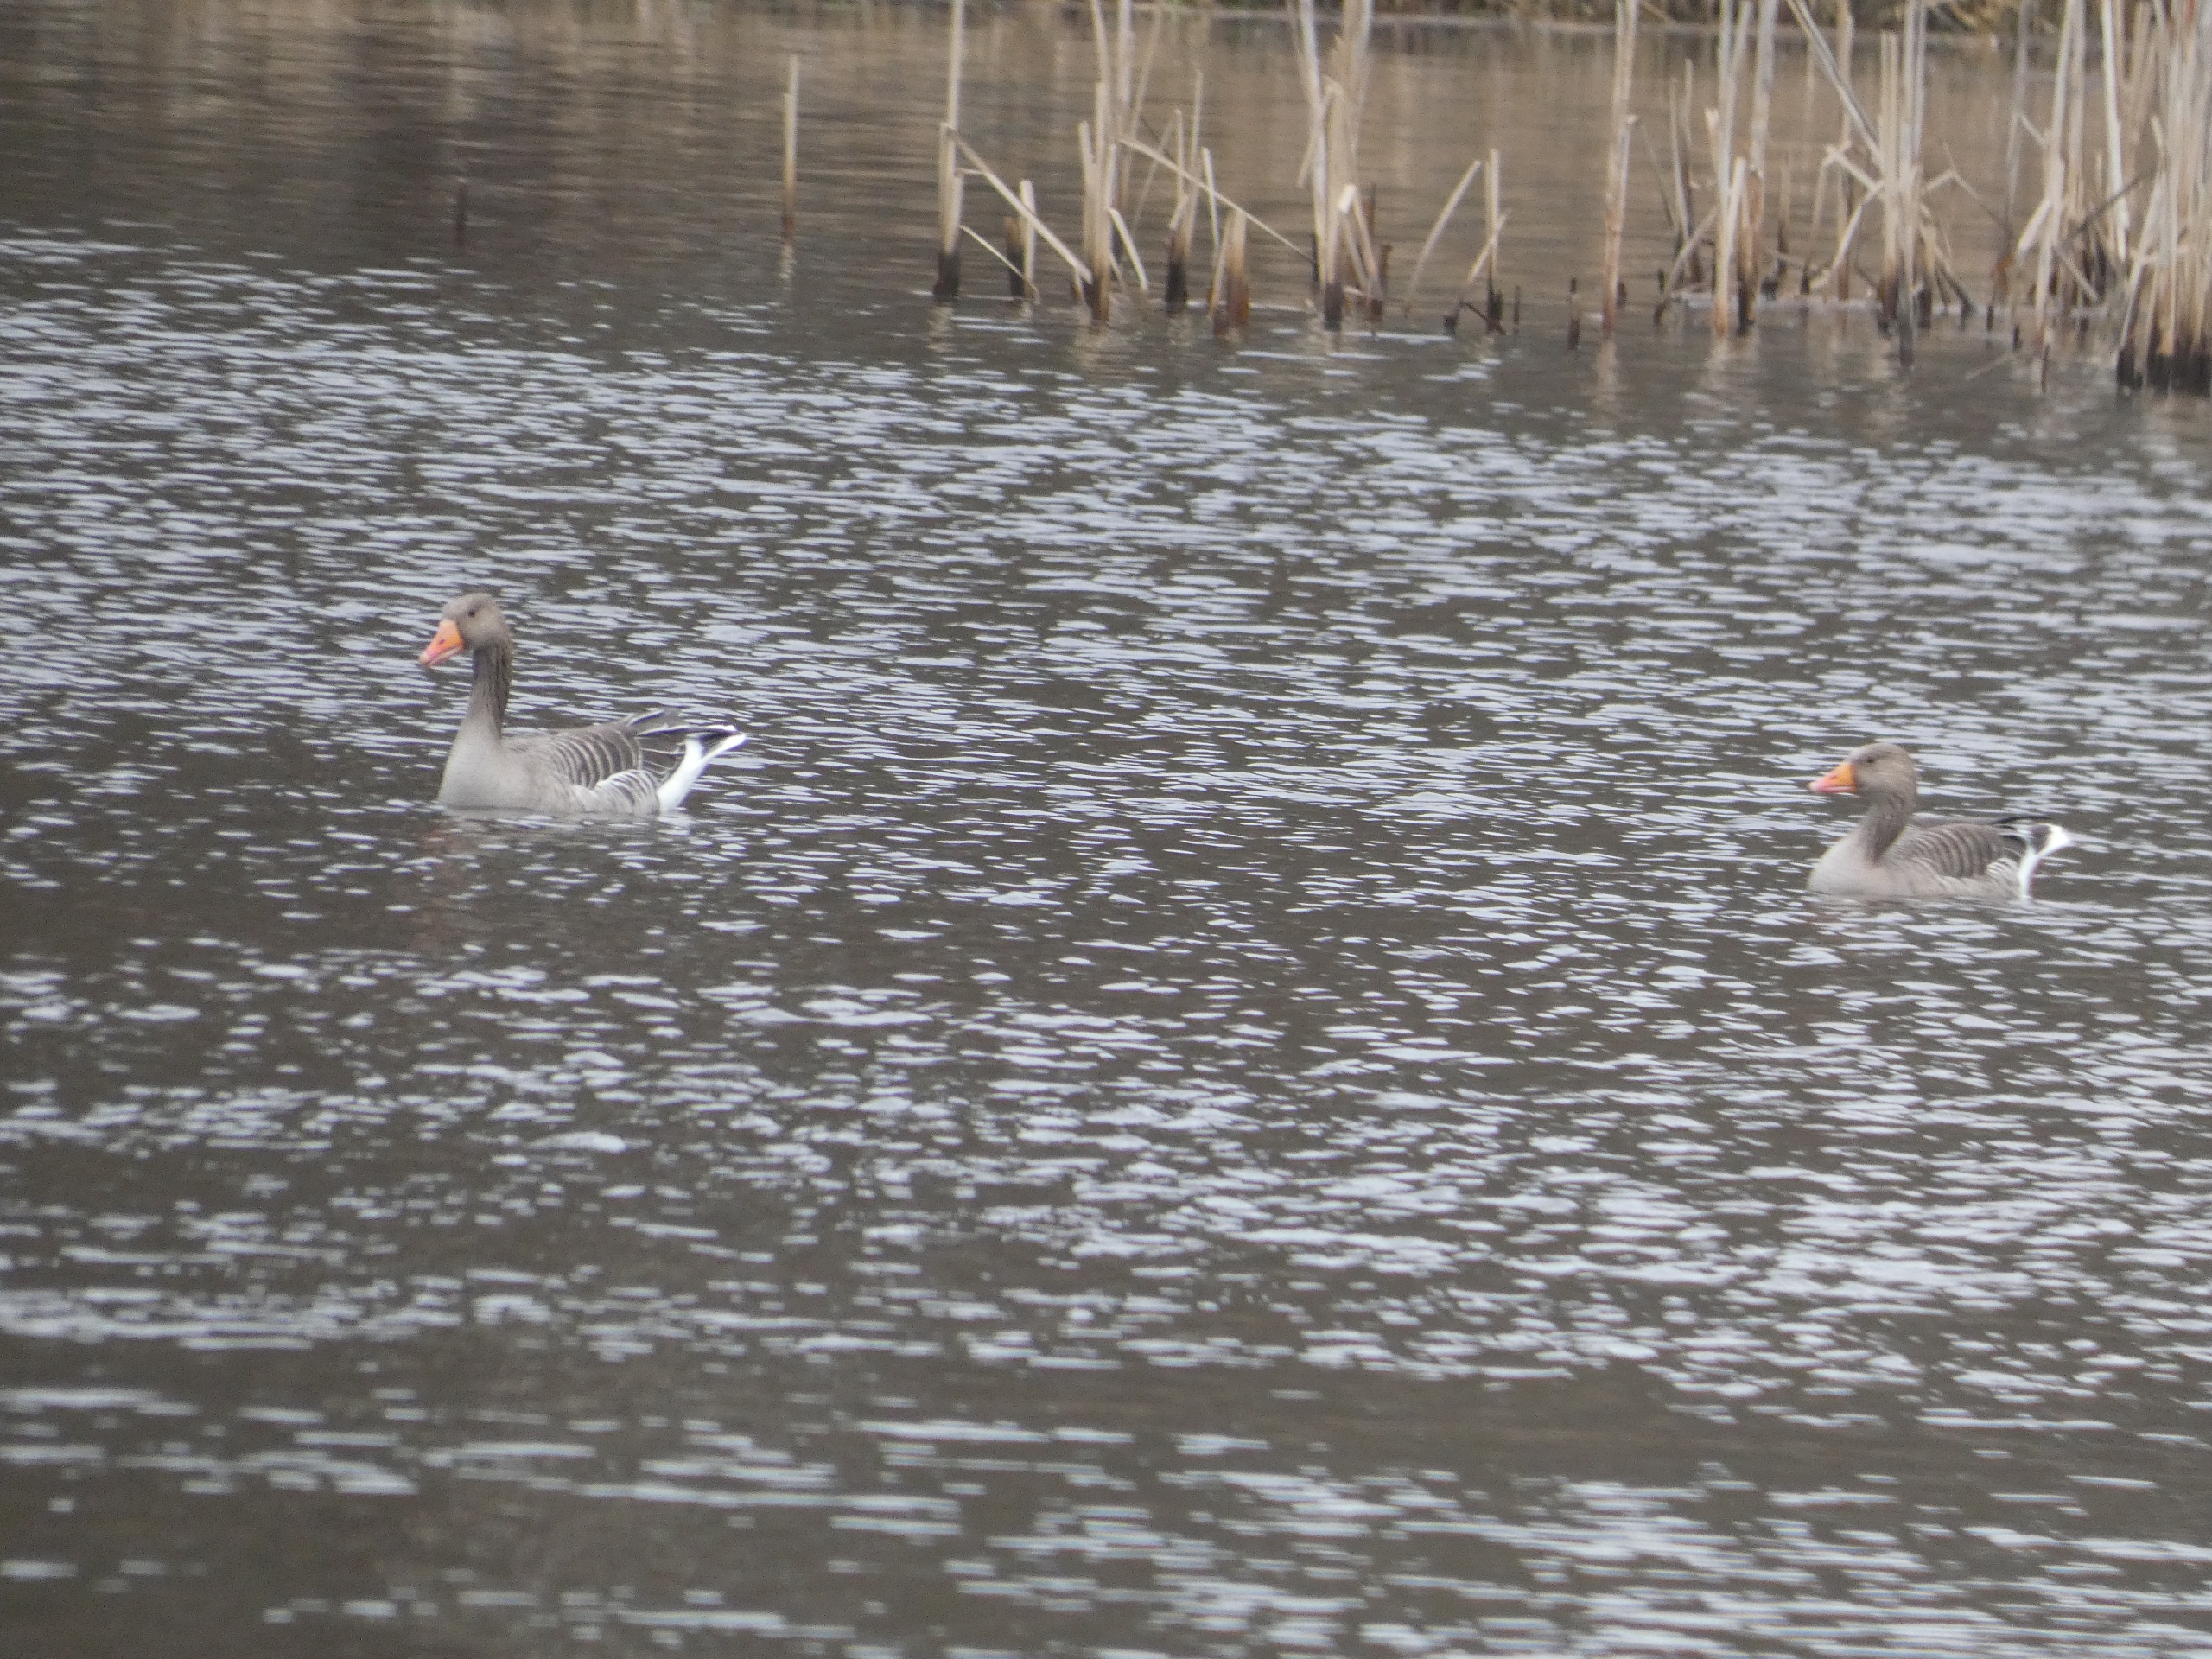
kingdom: Animalia
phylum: Chordata
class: Aves
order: Anseriformes
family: Anatidae
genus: Anser
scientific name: Anser anser
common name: Grågås
